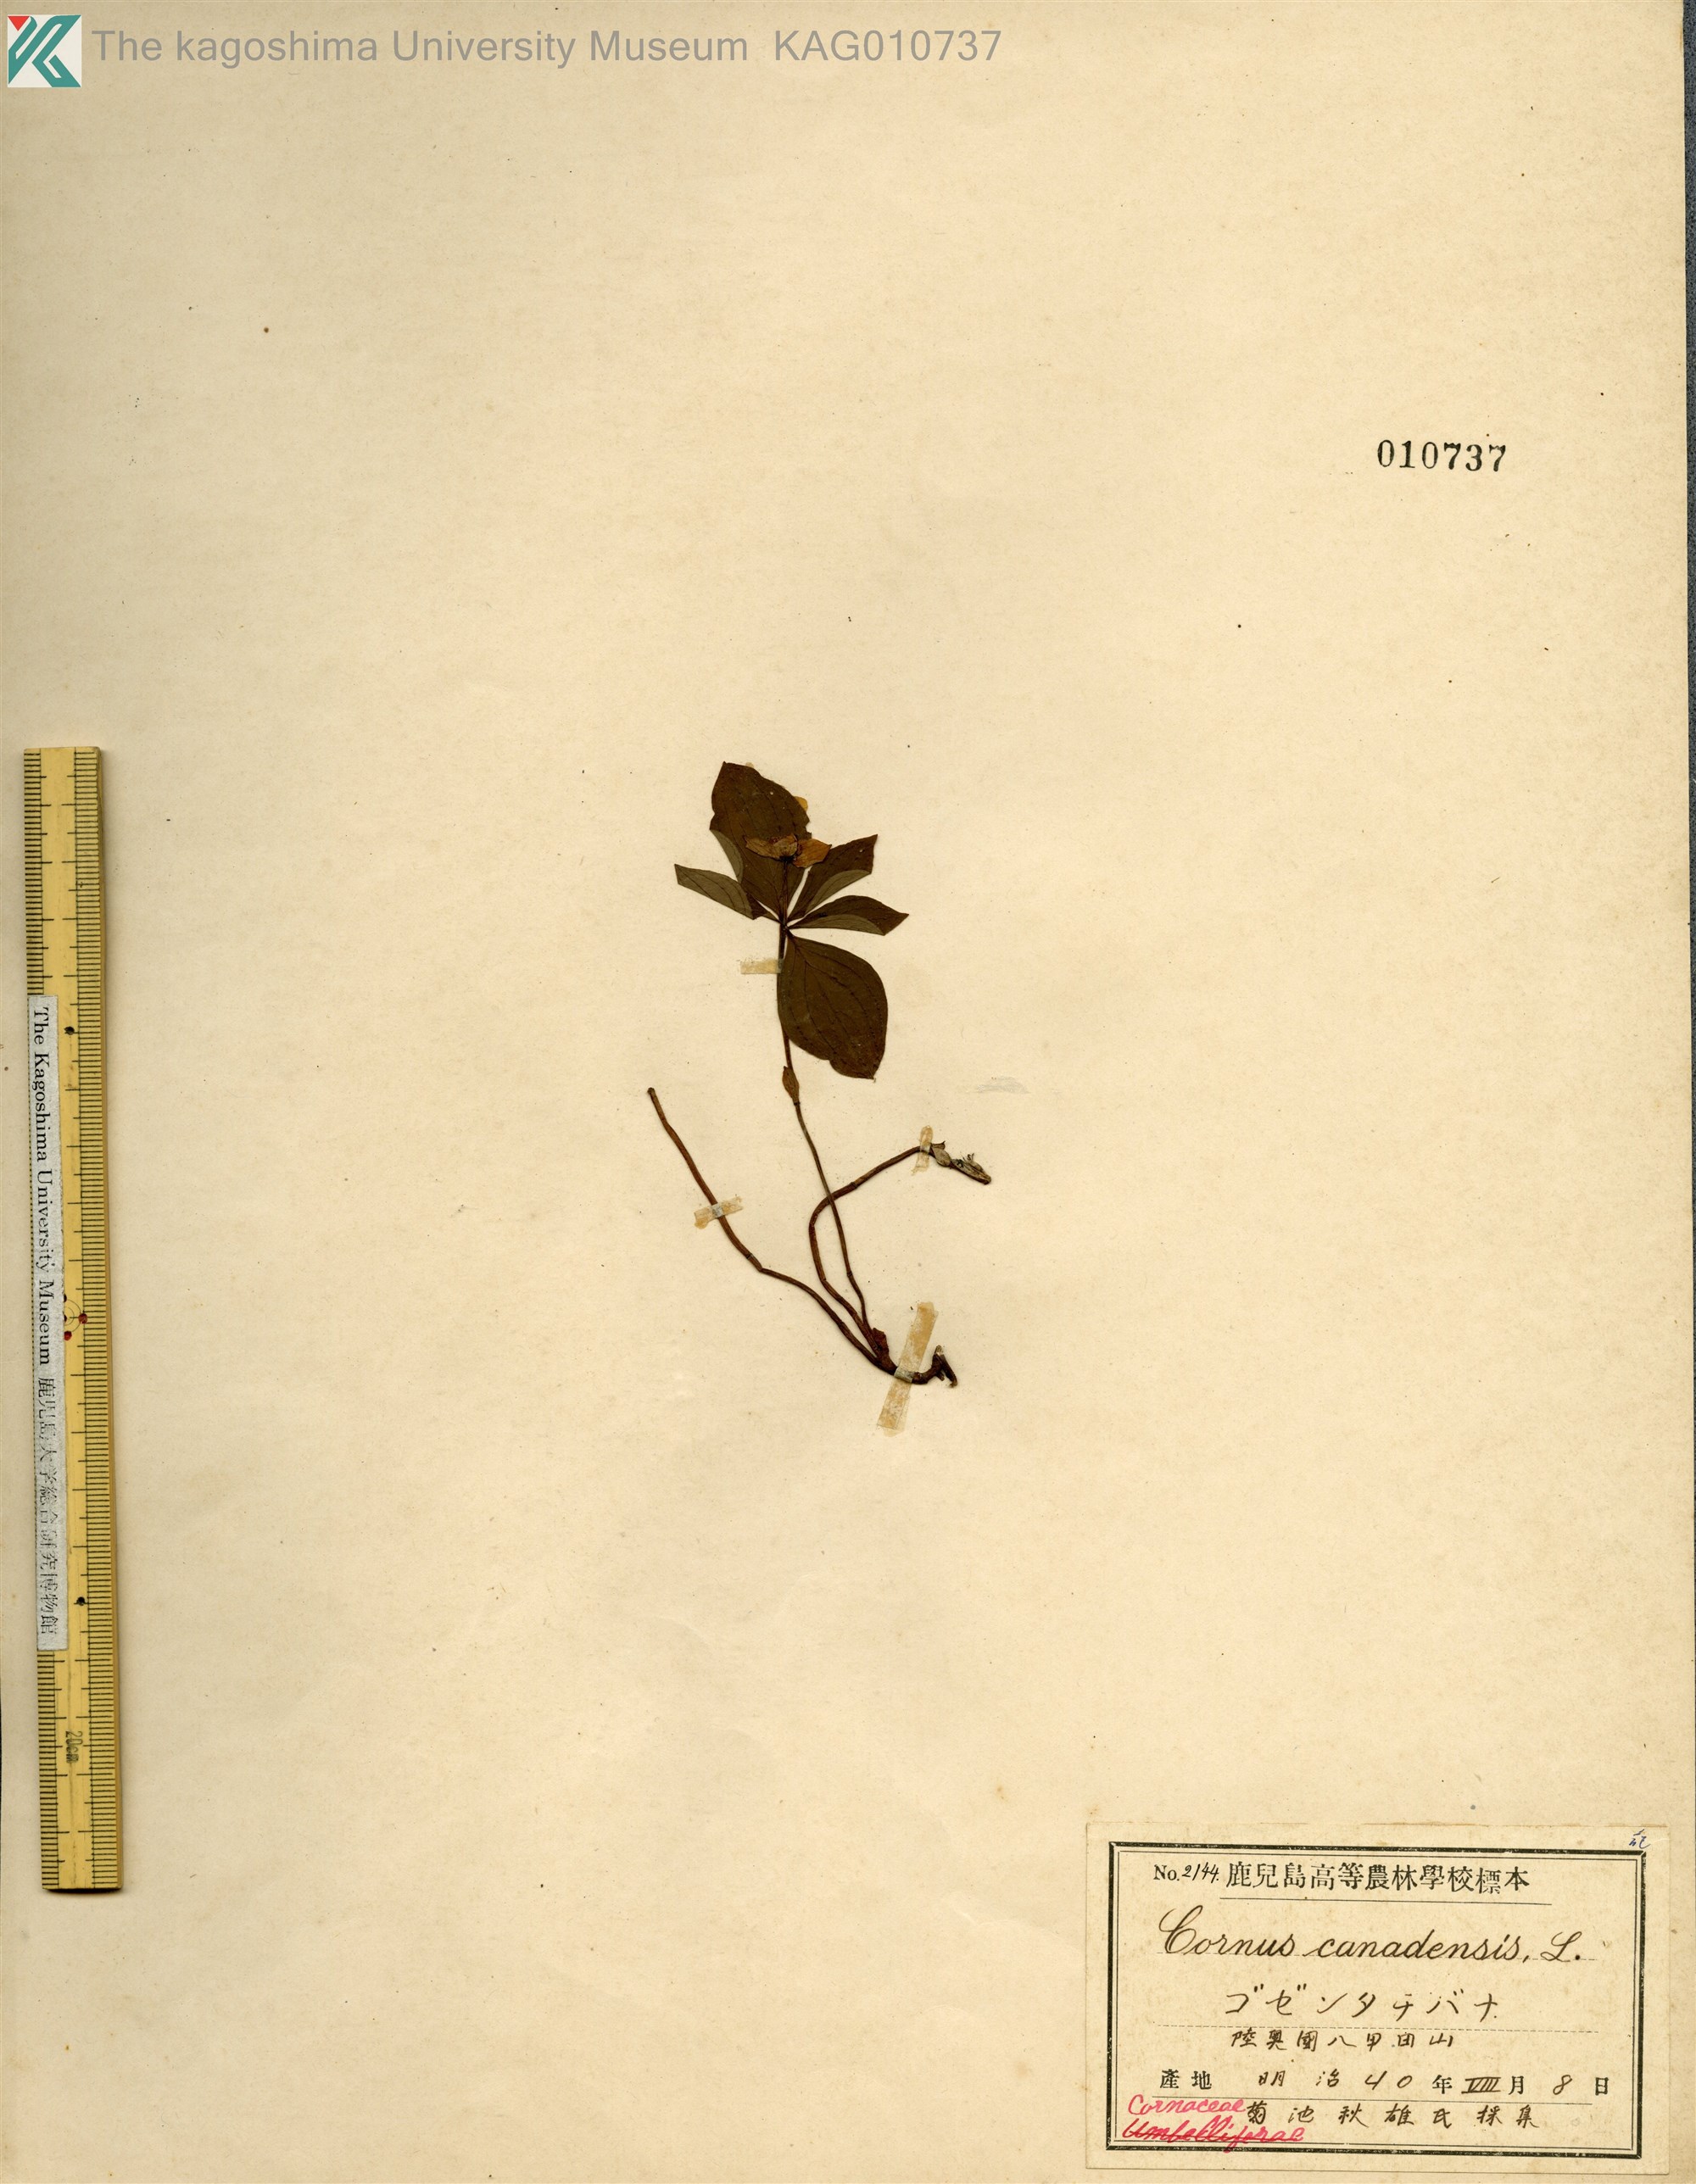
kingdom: Plantae
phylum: Tracheophyta
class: Magnoliopsida
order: Cornales
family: Cornaceae
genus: Cornus
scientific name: Cornus canadensis
